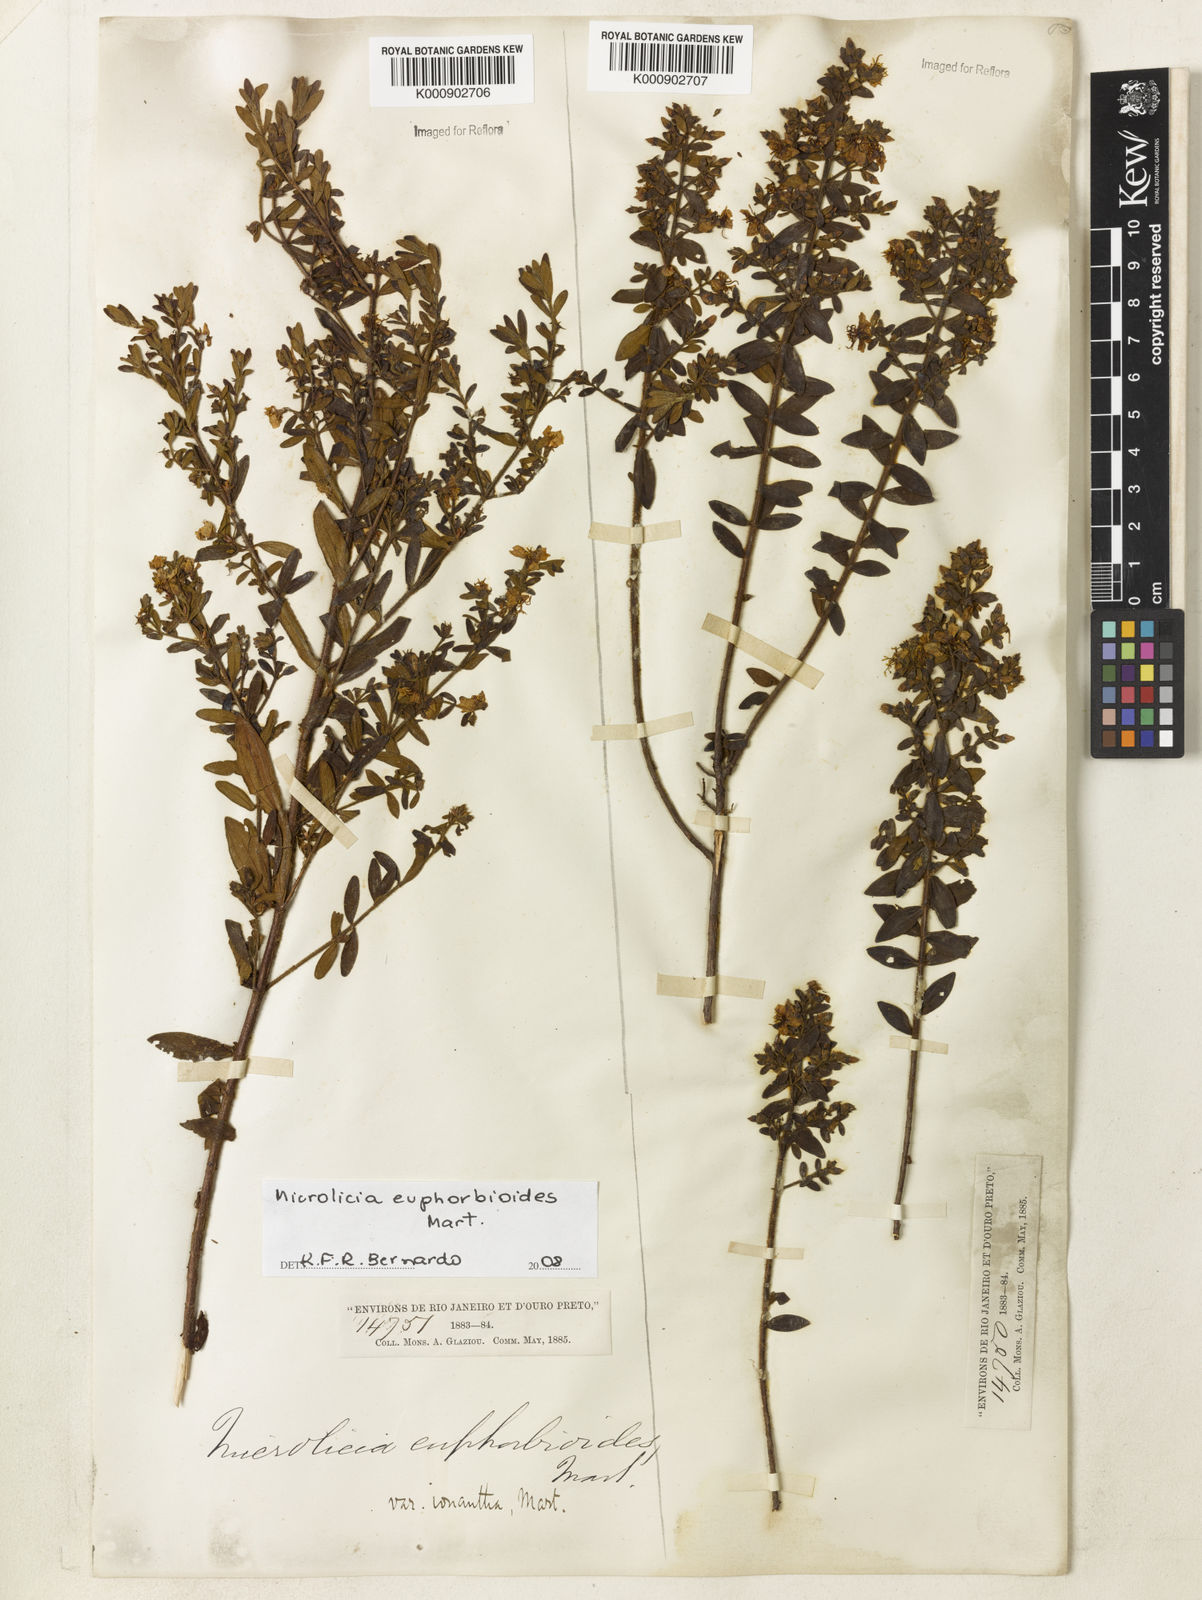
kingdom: Plantae
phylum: Tracheophyta
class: Magnoliopsida
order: Myrtales
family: Melastomataceae
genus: Microlicia
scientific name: Microlicia euphorbioides
